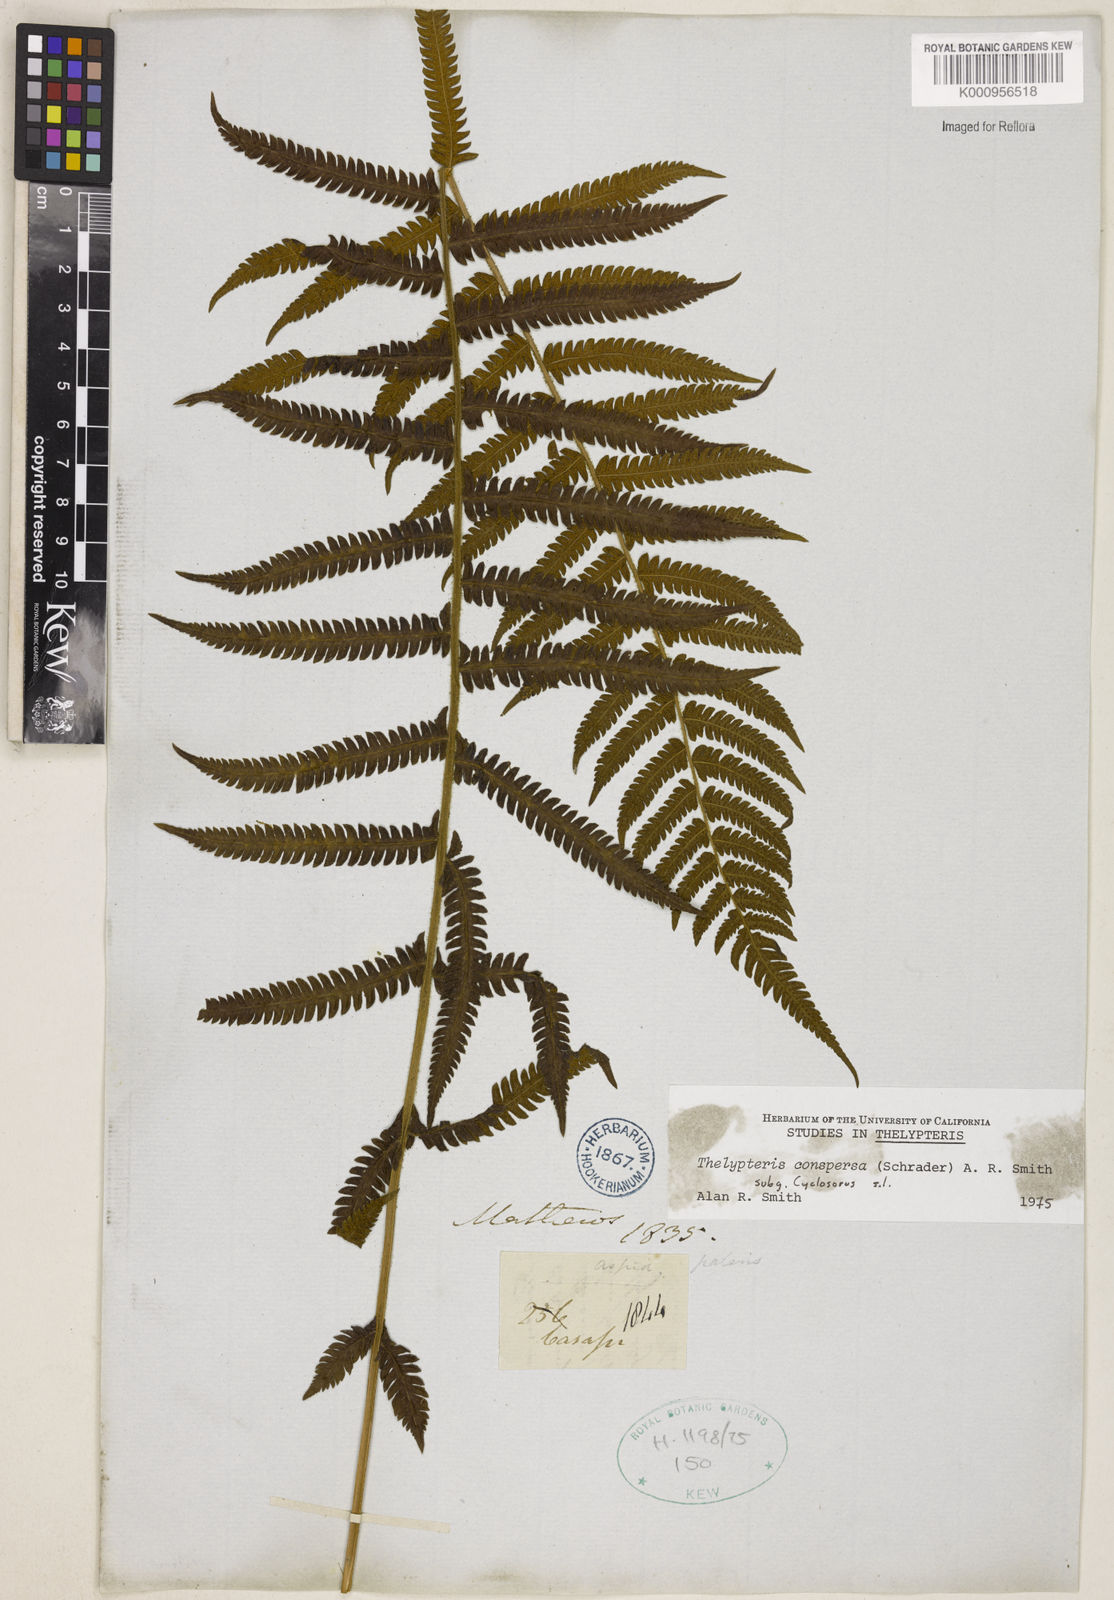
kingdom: Plantae
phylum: Tracheophyta
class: Polypodiopsida
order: Polypodiales
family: Thelypteridaceae
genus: Christella
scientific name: Christella
